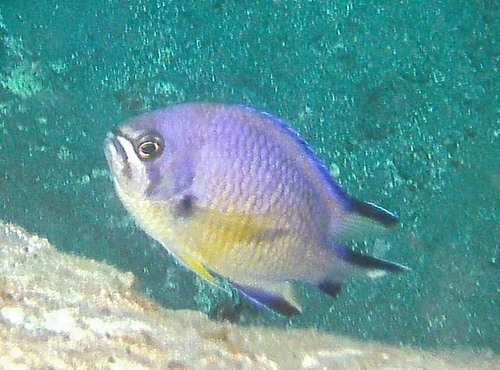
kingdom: Animalia
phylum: Chordata
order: Perciformes
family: Pomacentridae
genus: Chromis
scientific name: Chromis limbata
